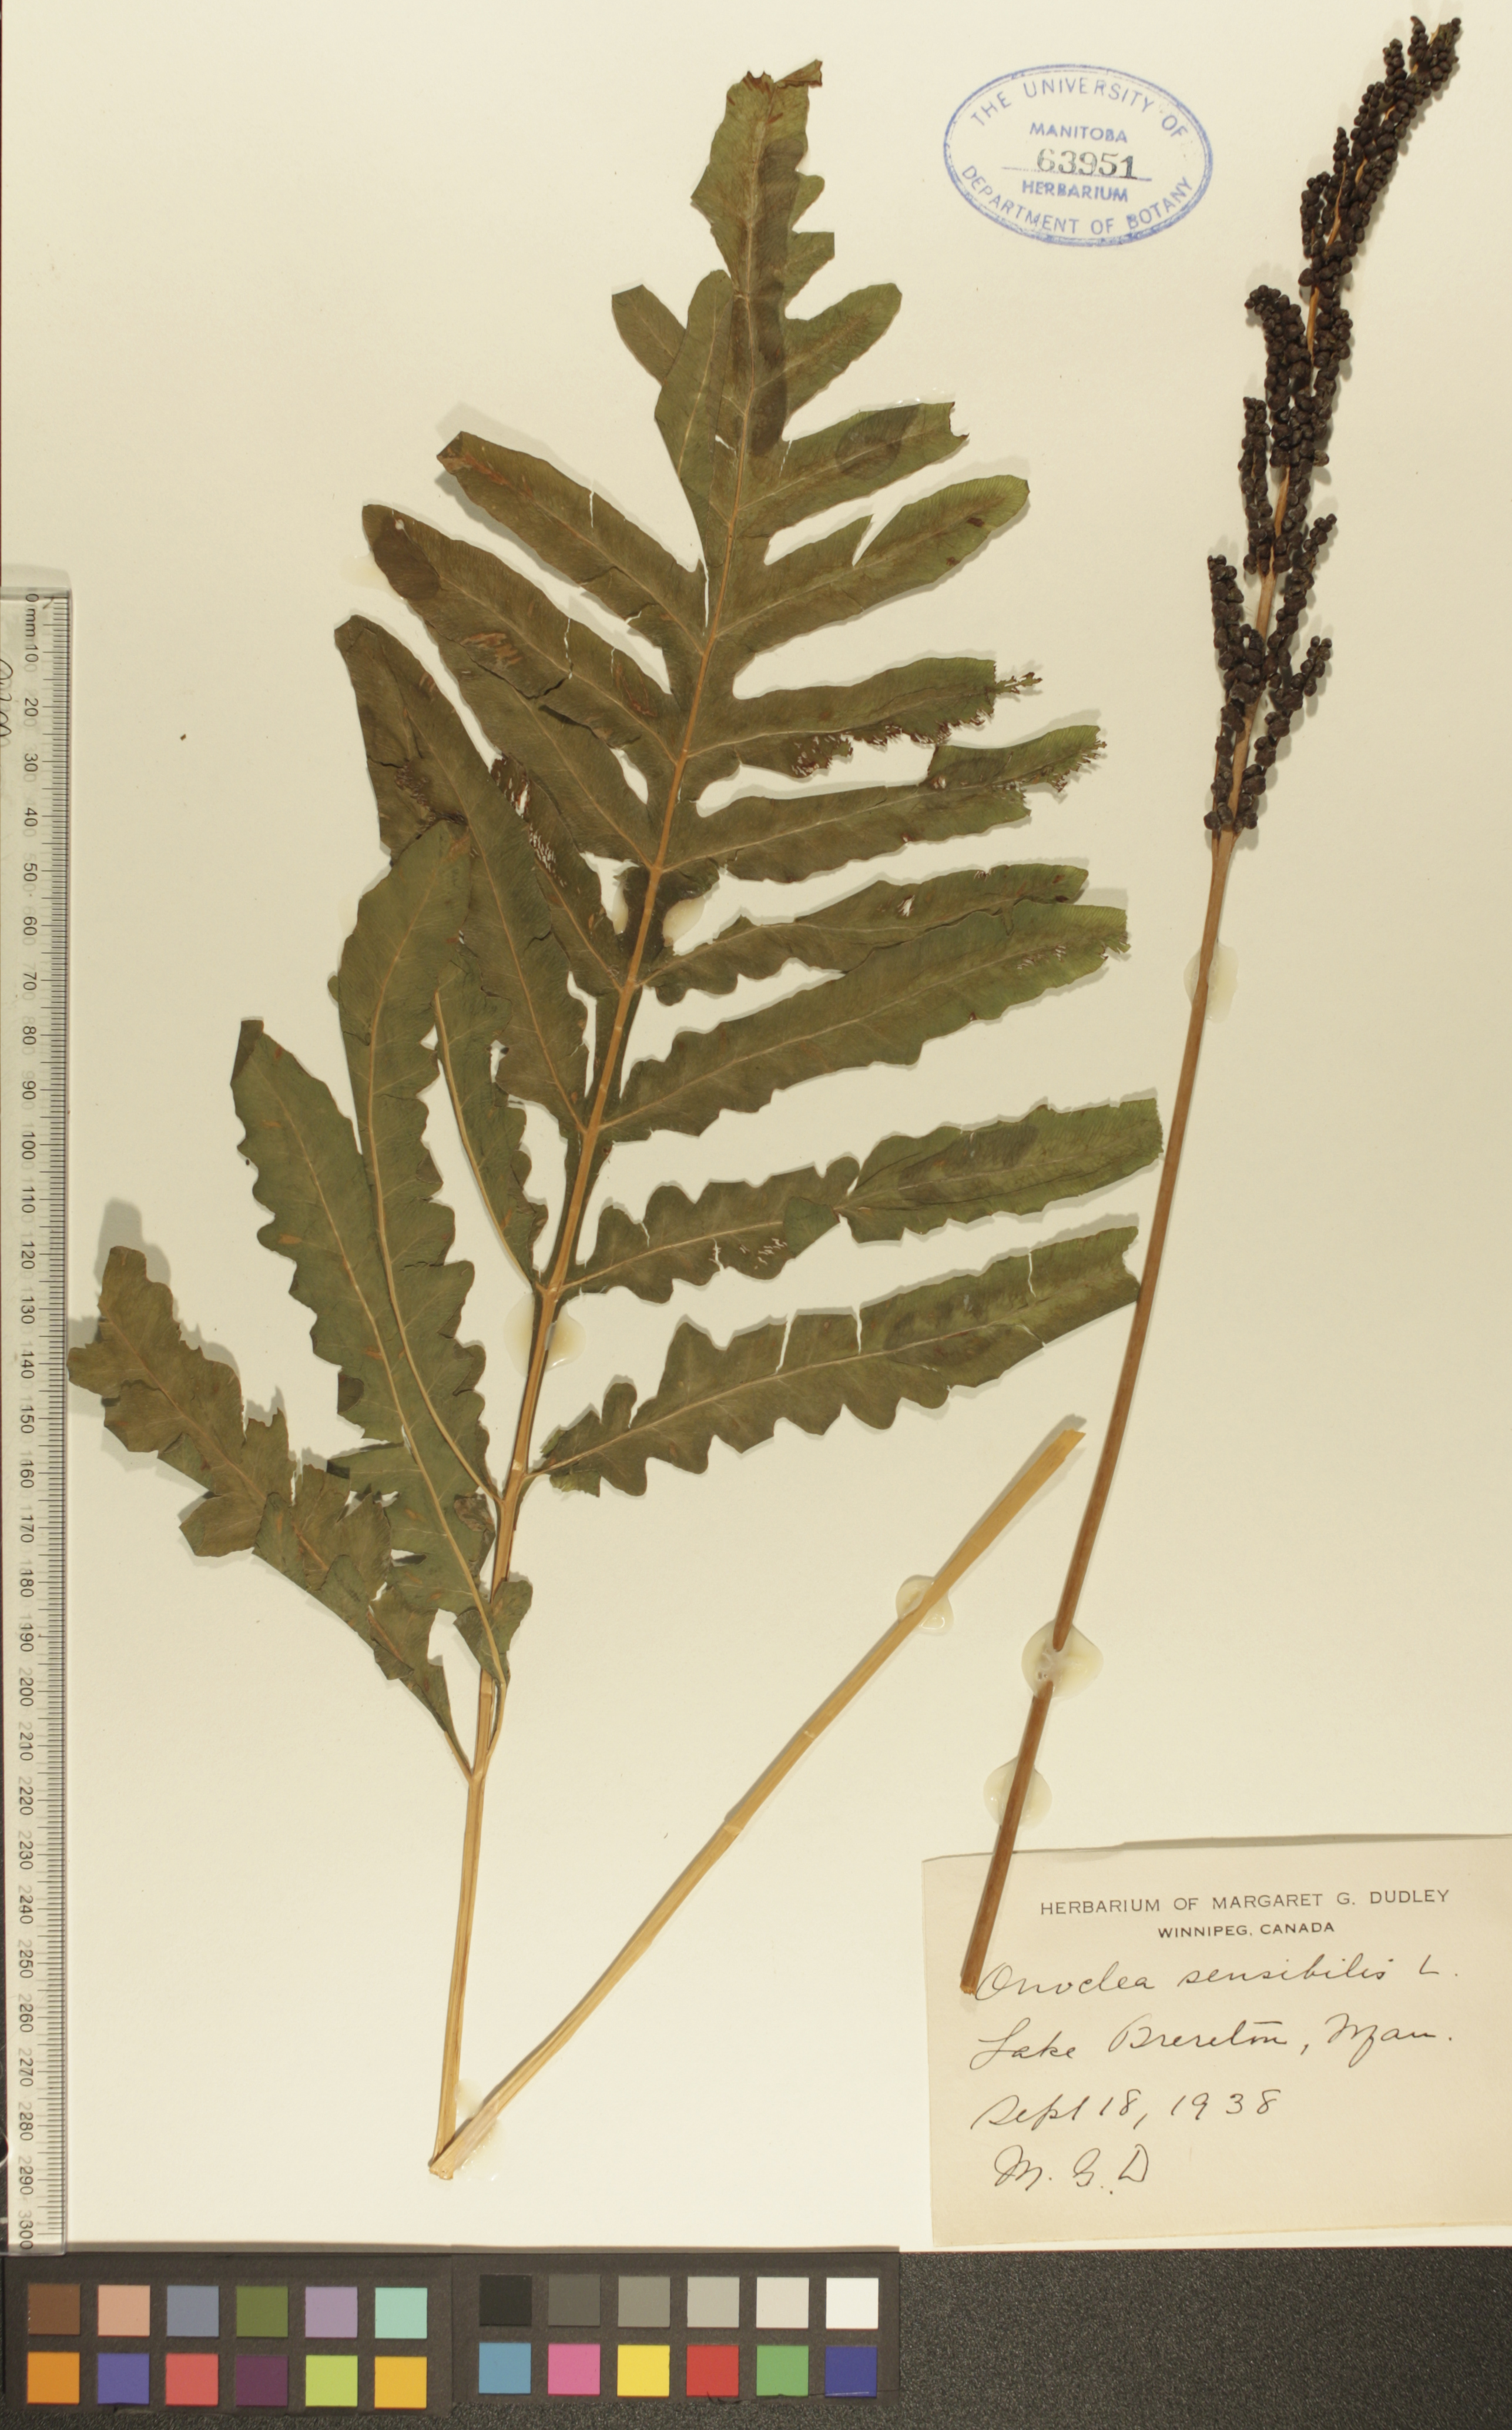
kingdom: Plantae
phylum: Tracheophyta
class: Polypodiopsida
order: Polypodiales
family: Onocleaceae
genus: Onoclea
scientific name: Onoclea sensibilis
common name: Sensitive fern
